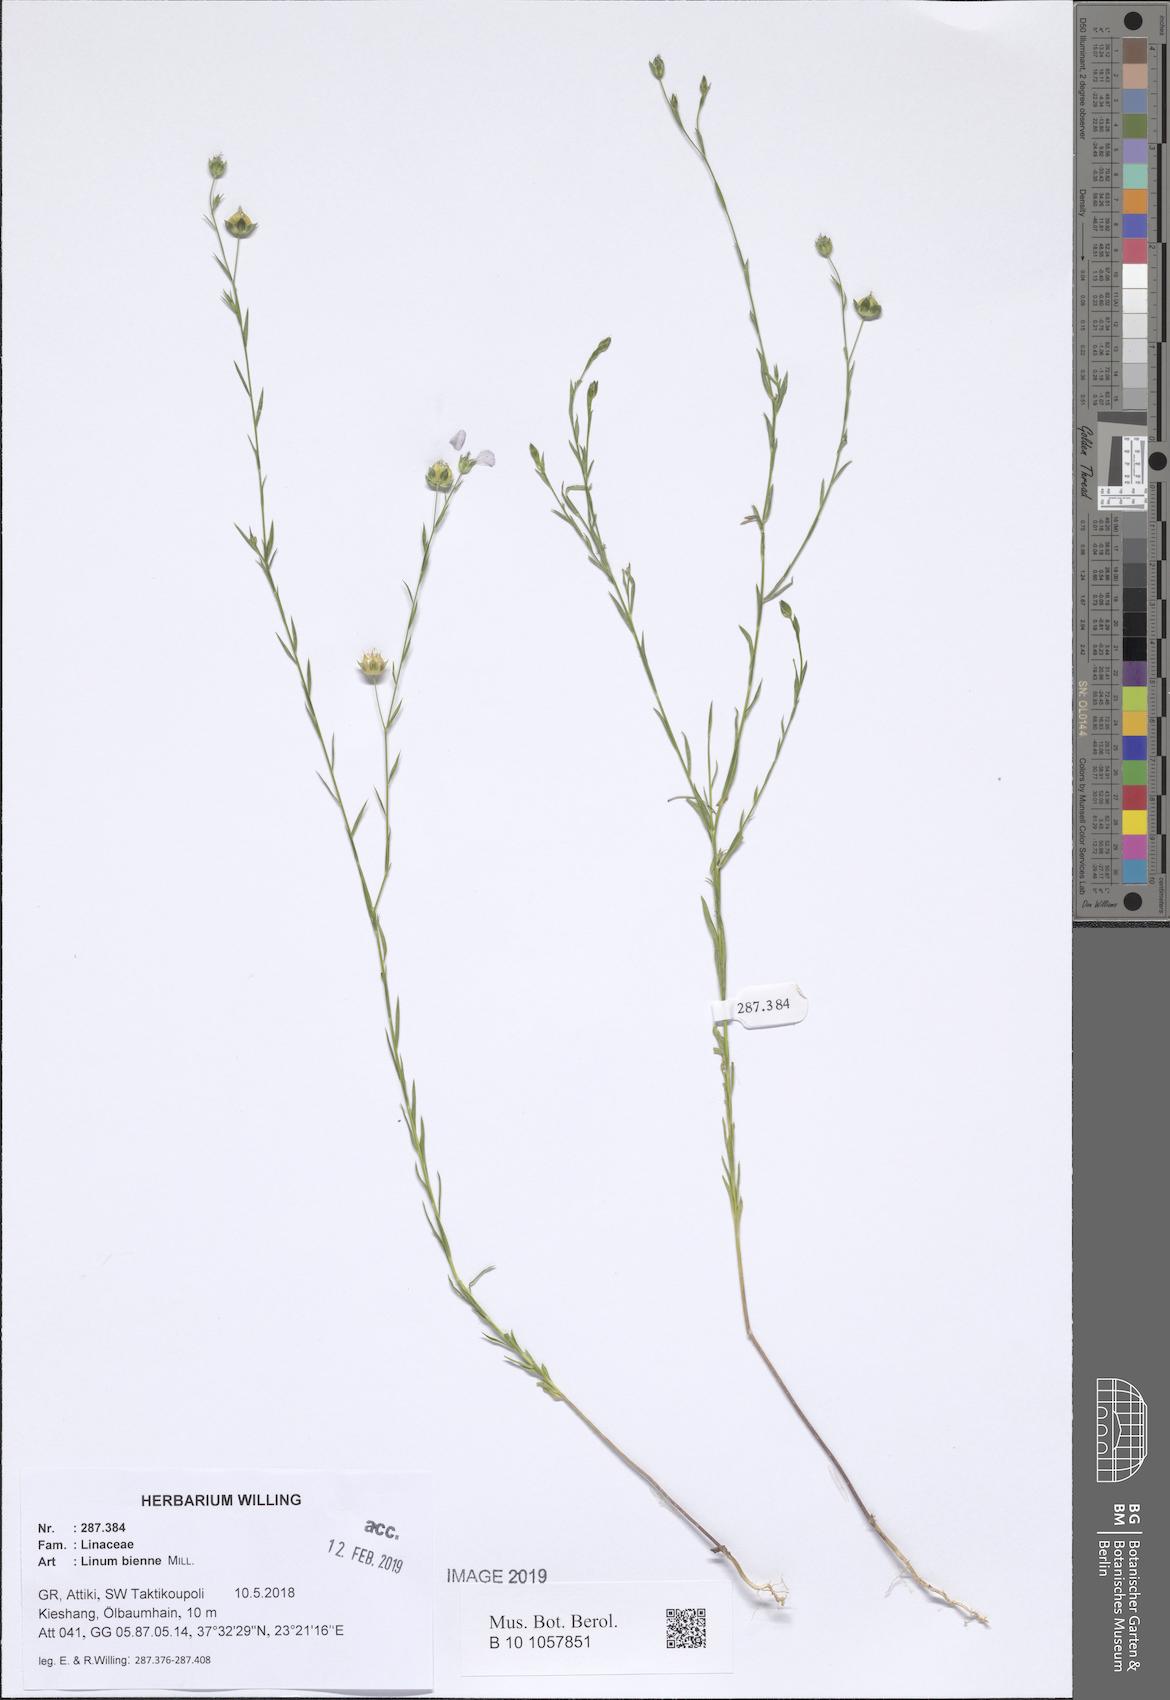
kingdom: Plantae
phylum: Tracheophyta
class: Magnoliopsida
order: Malpighiales
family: Linaceae
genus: Linum
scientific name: Linum bienne
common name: Pale flax
